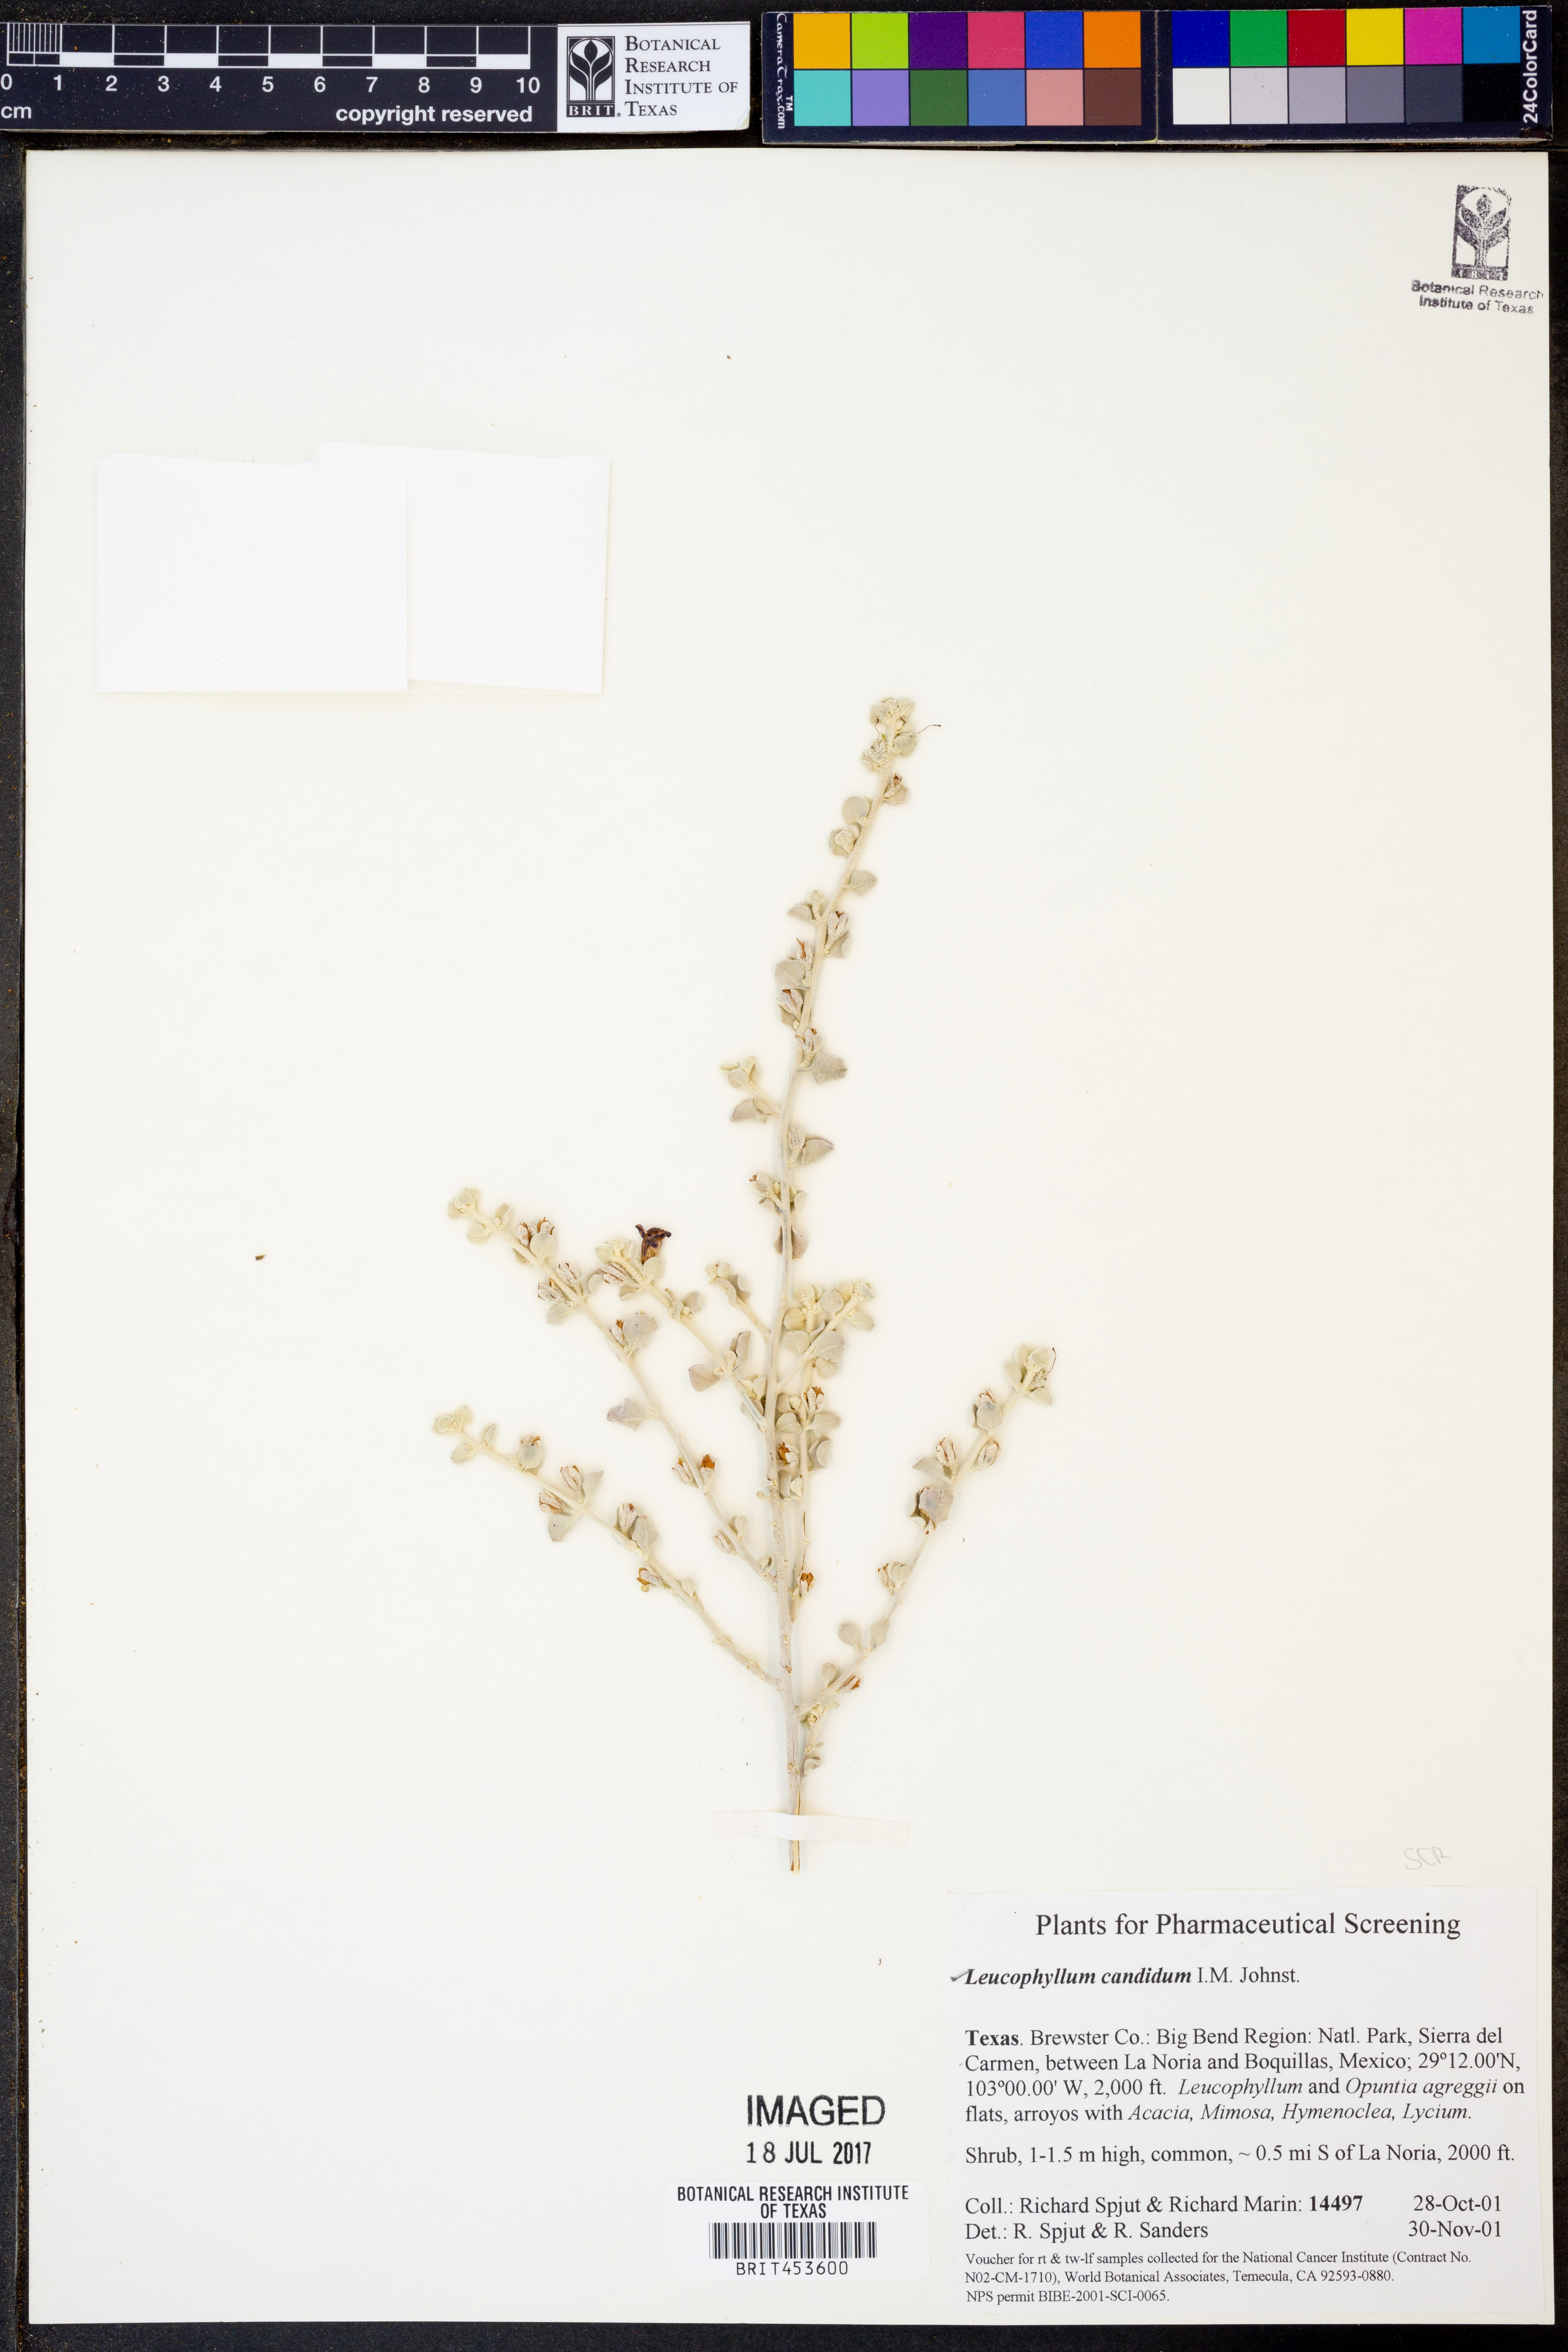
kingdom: Plantae
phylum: Tracheophyta
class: Magnoliopsida
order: Lamiales
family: Scrophulariaceae
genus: Leucophyllum
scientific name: Leucophyllum candidum
